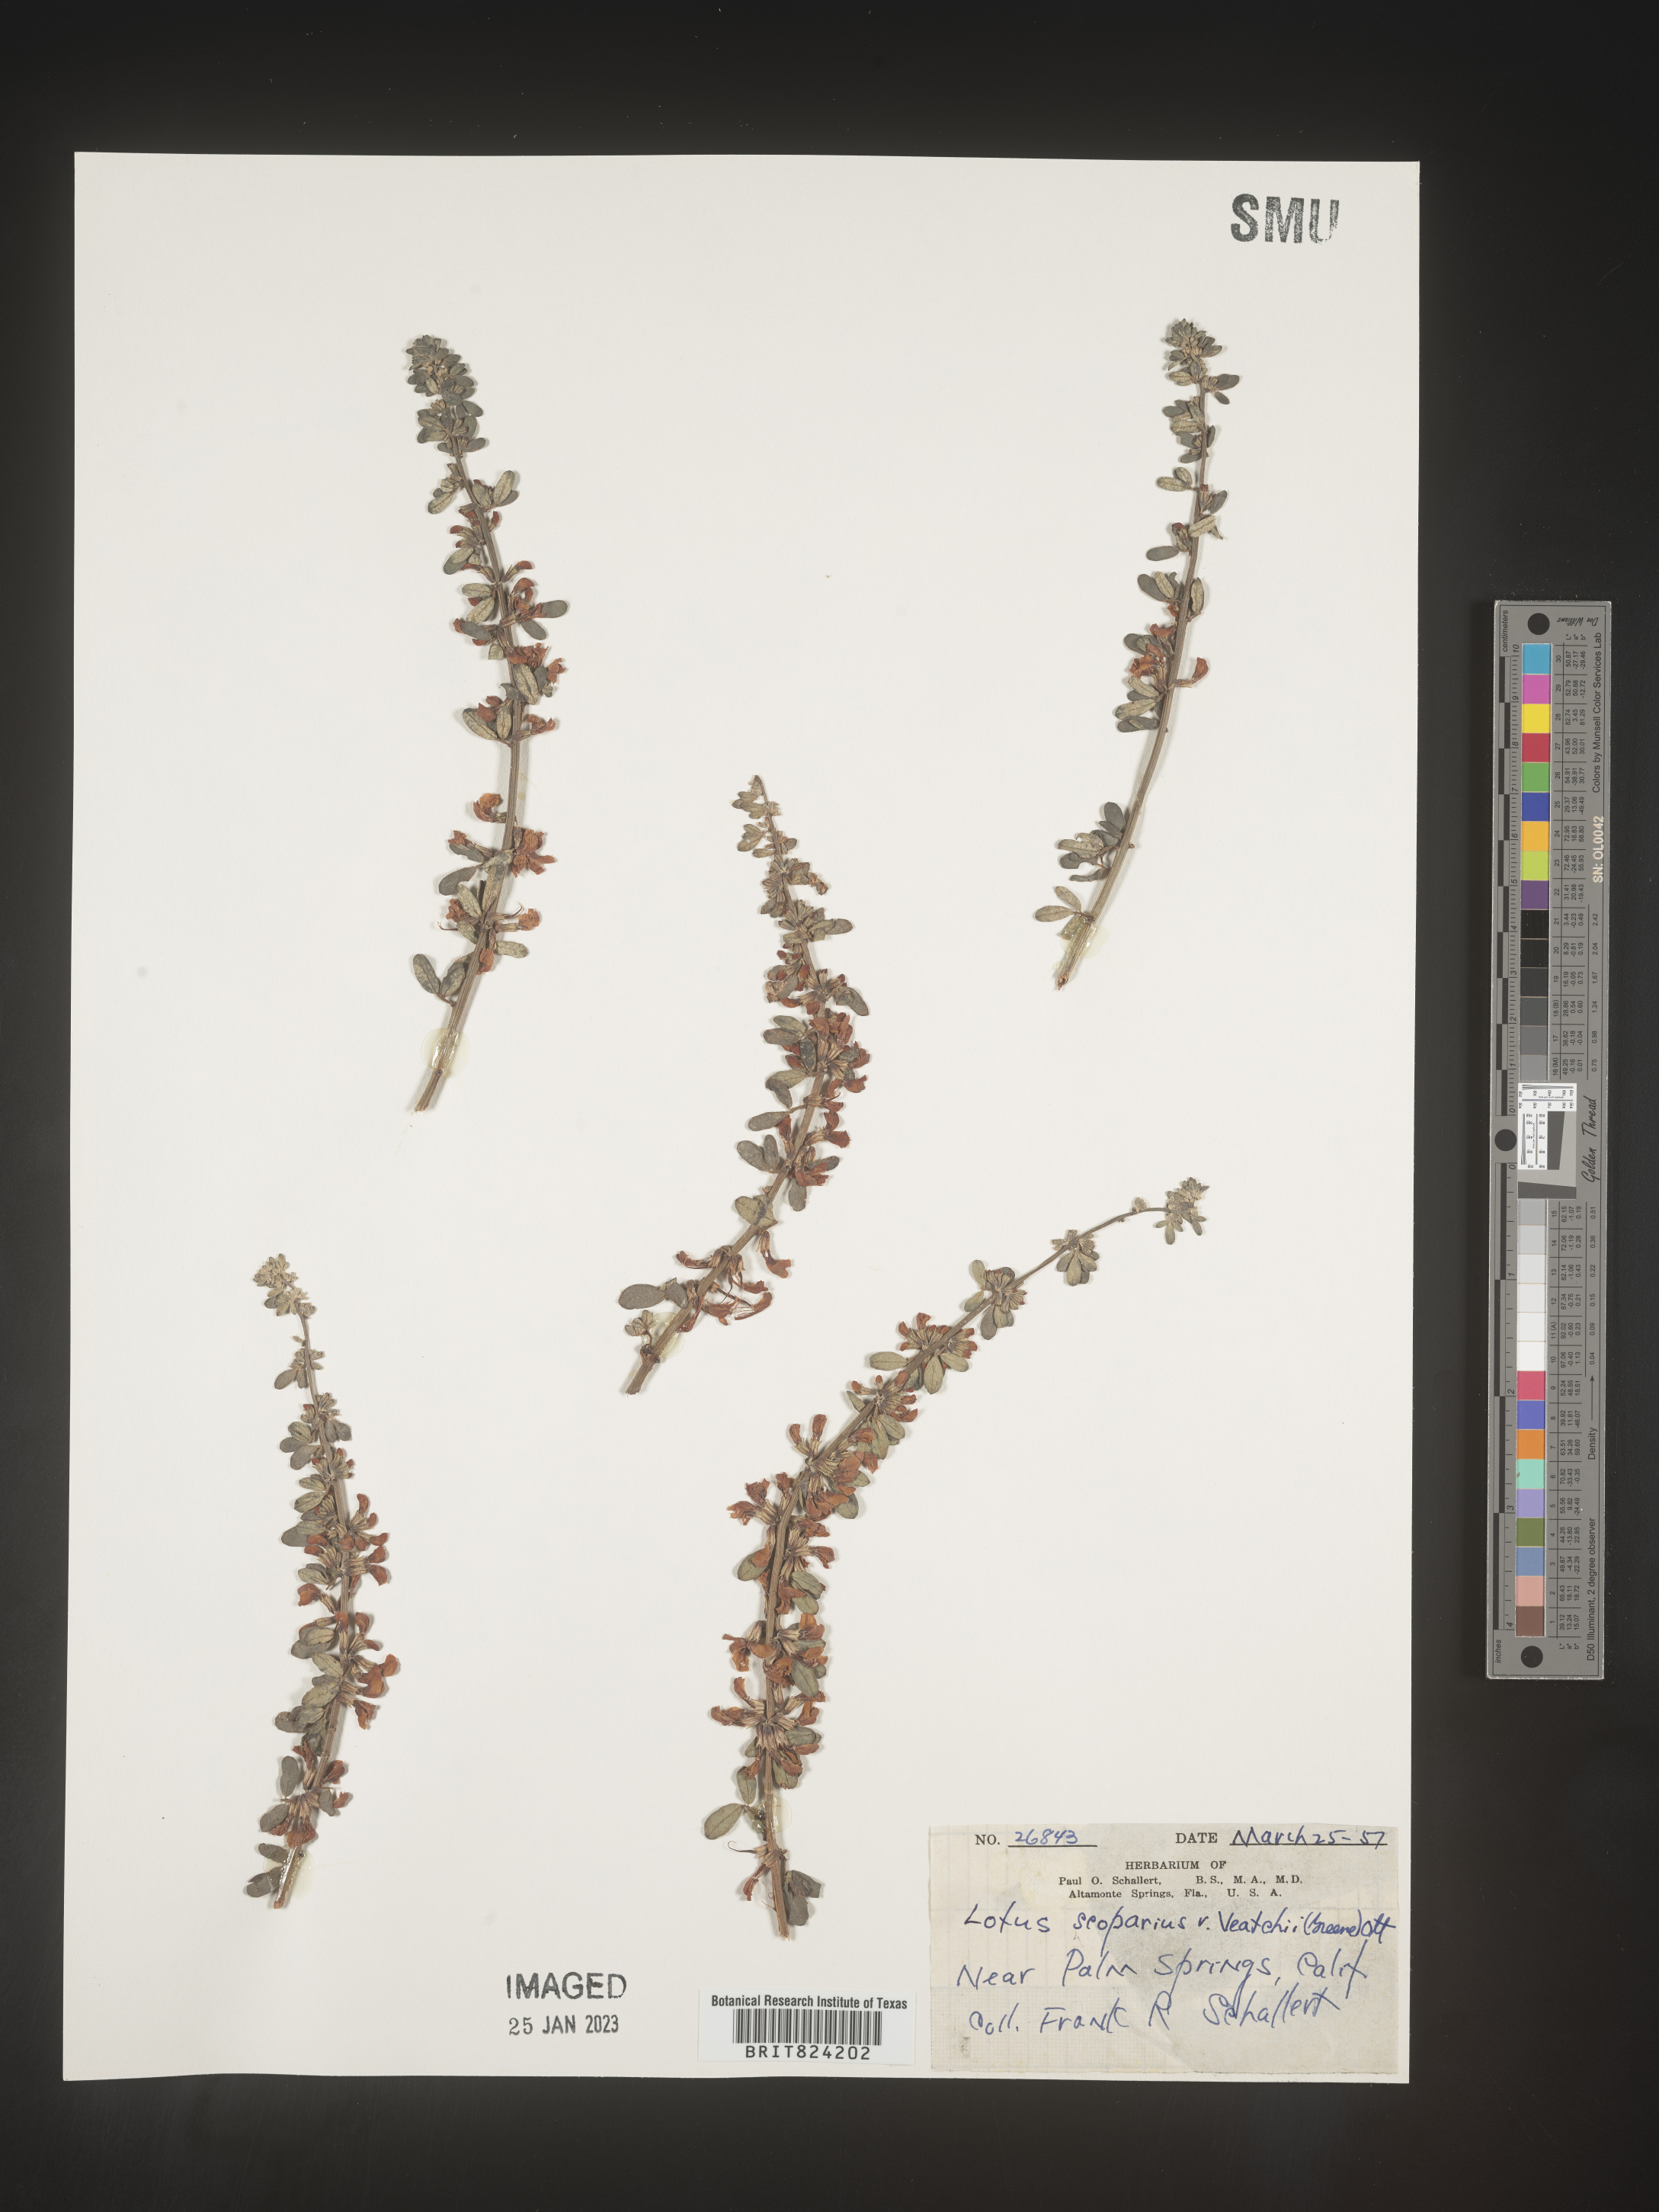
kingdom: Plantae
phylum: Tracheophyta
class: Magnoliopsida
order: Fabales
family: Fabaceae
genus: Lotus
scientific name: Lotus
